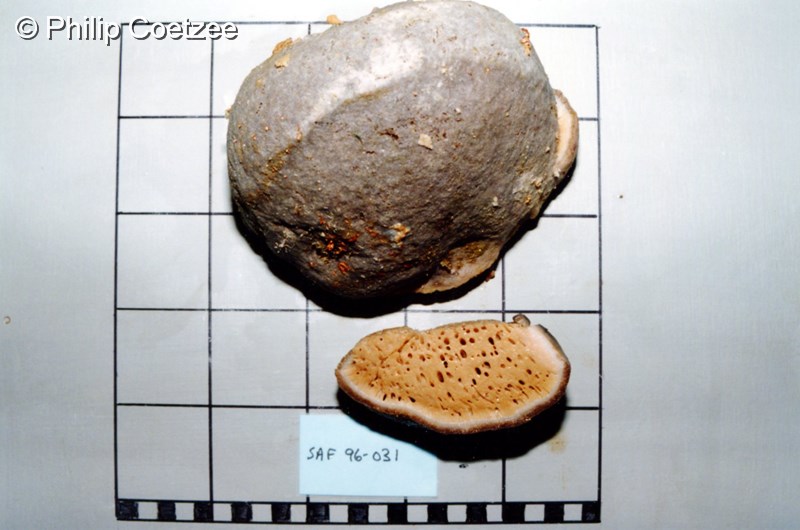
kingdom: Animalia
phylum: Porifera
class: Demospongiae
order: Tetractinellida
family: Ancorinidae
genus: Stelletta
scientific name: Stelletta trisclera
